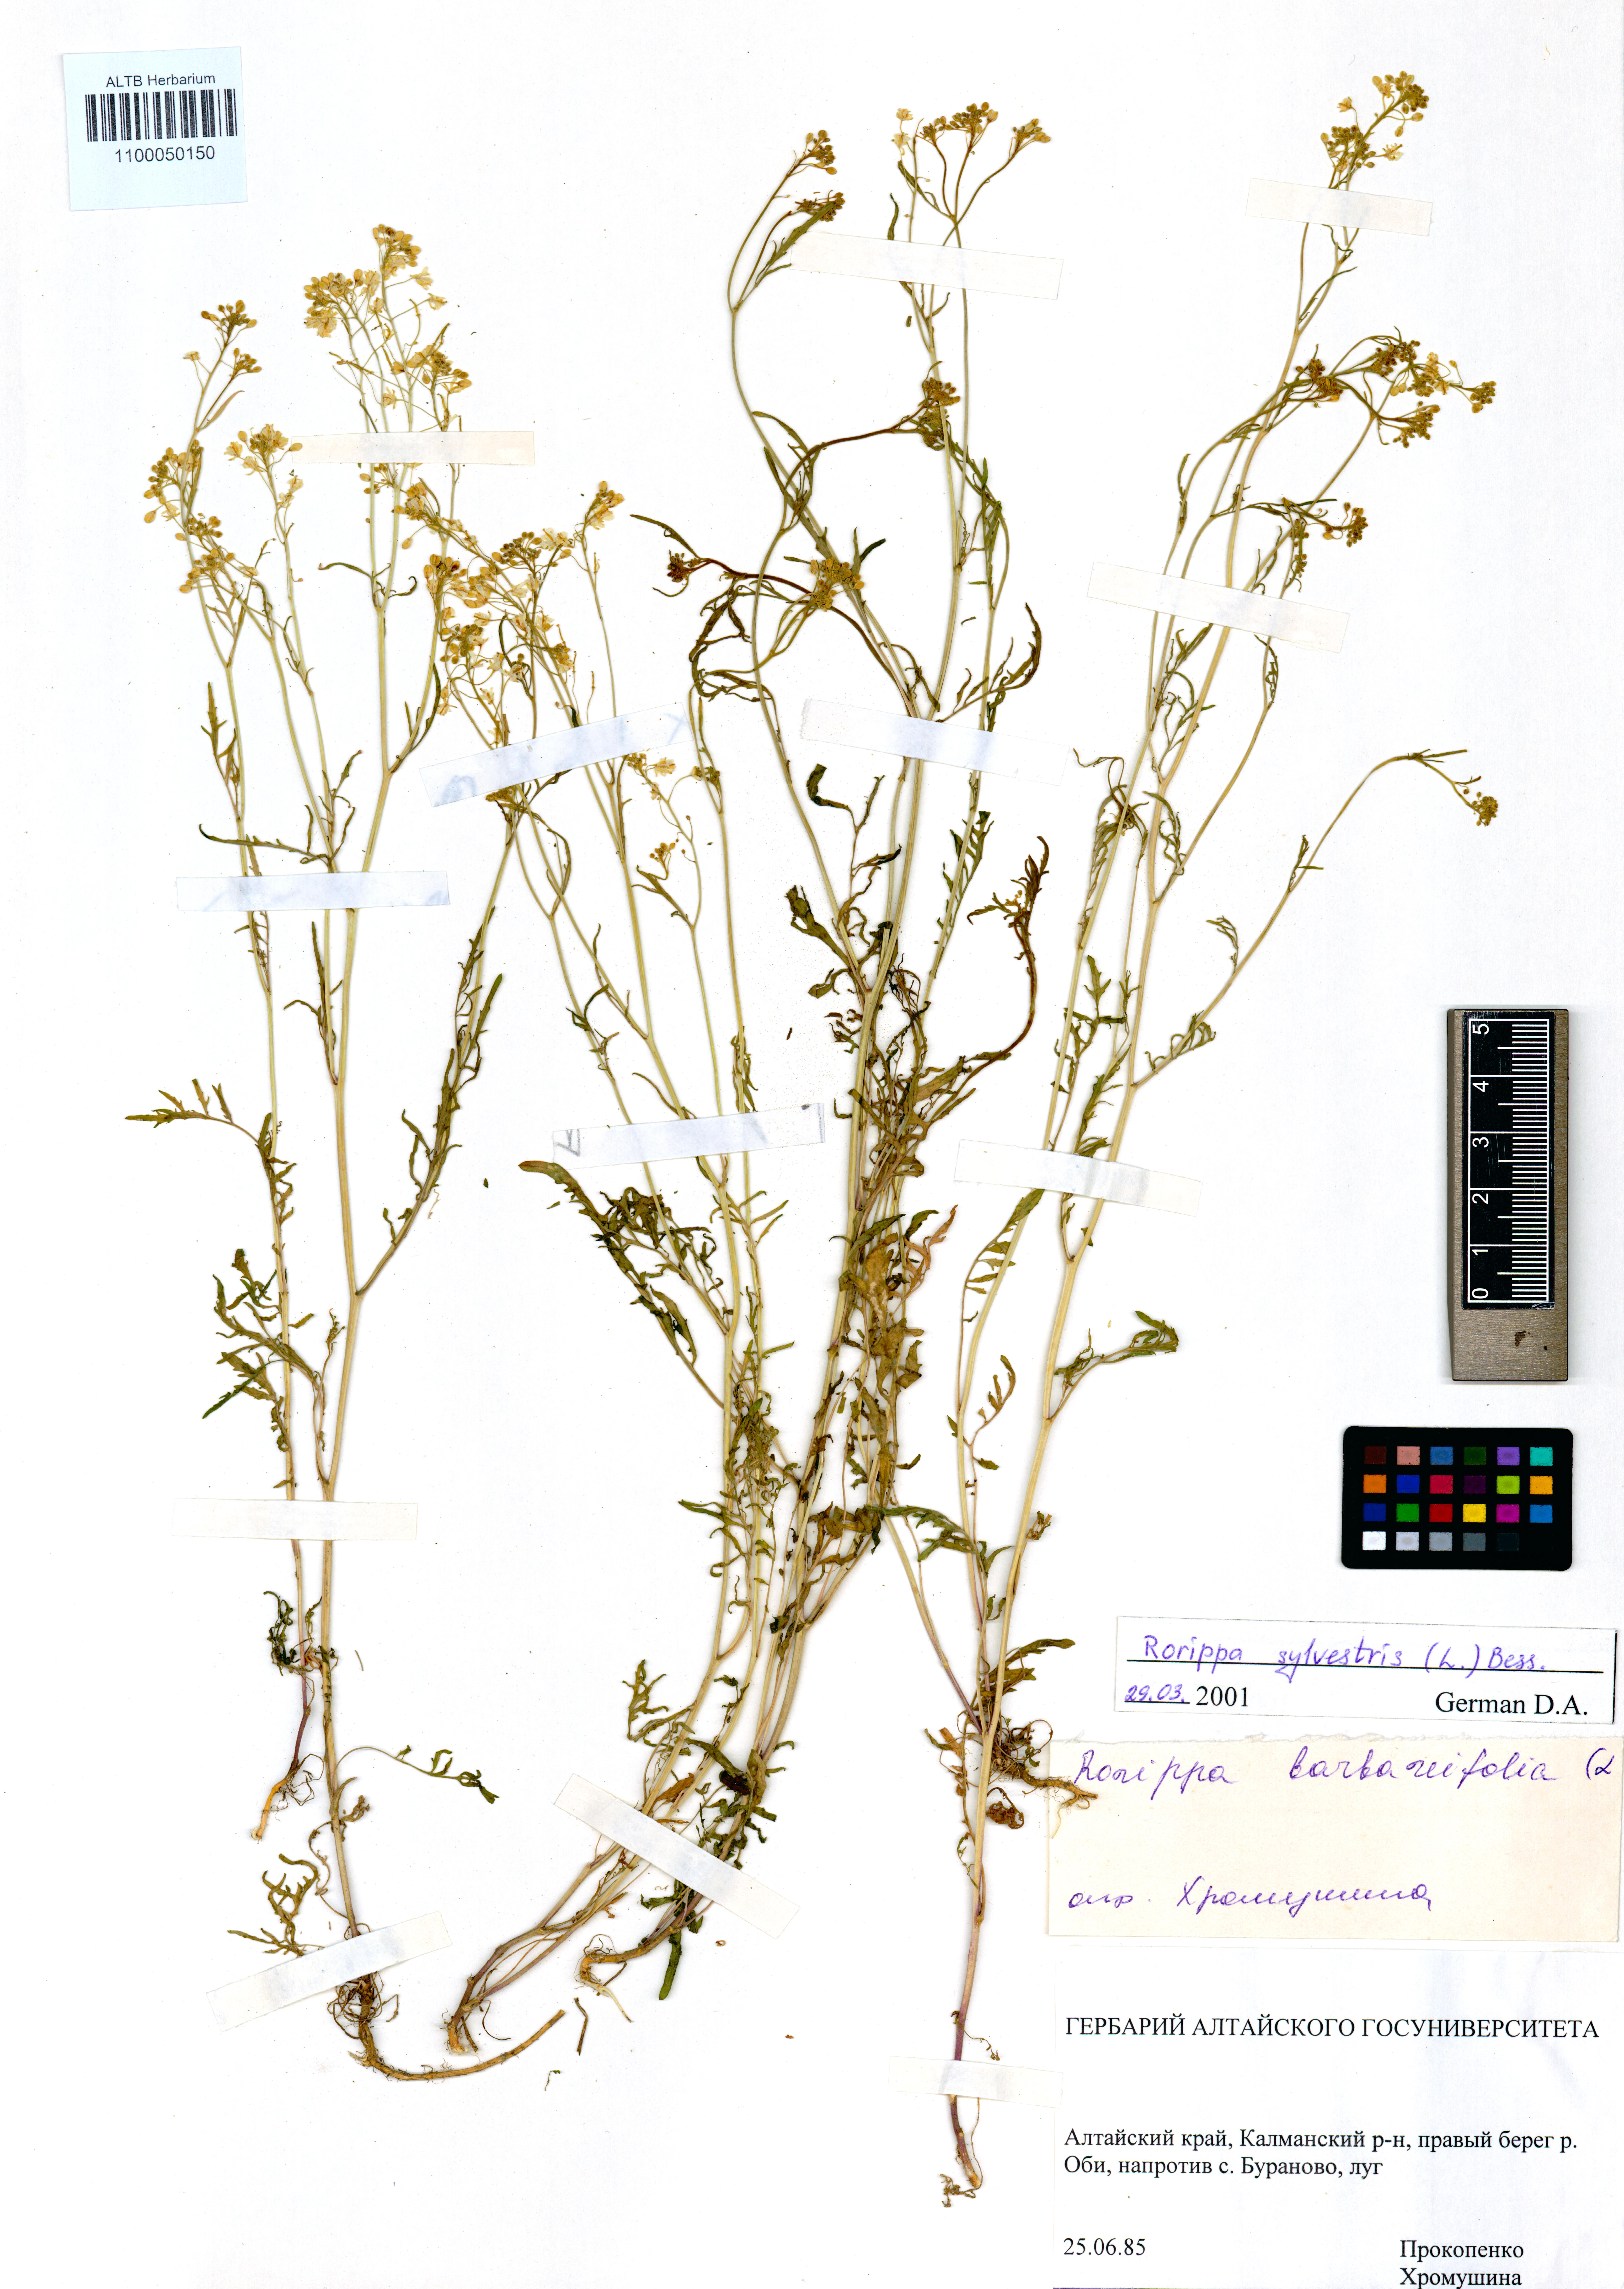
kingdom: Plantae
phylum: Tracheophyta
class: Magnoliopsida
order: Brassicales
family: Brassicaceae
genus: Rorippa
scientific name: Rorippa sylvestris
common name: Creeping yellowcress
